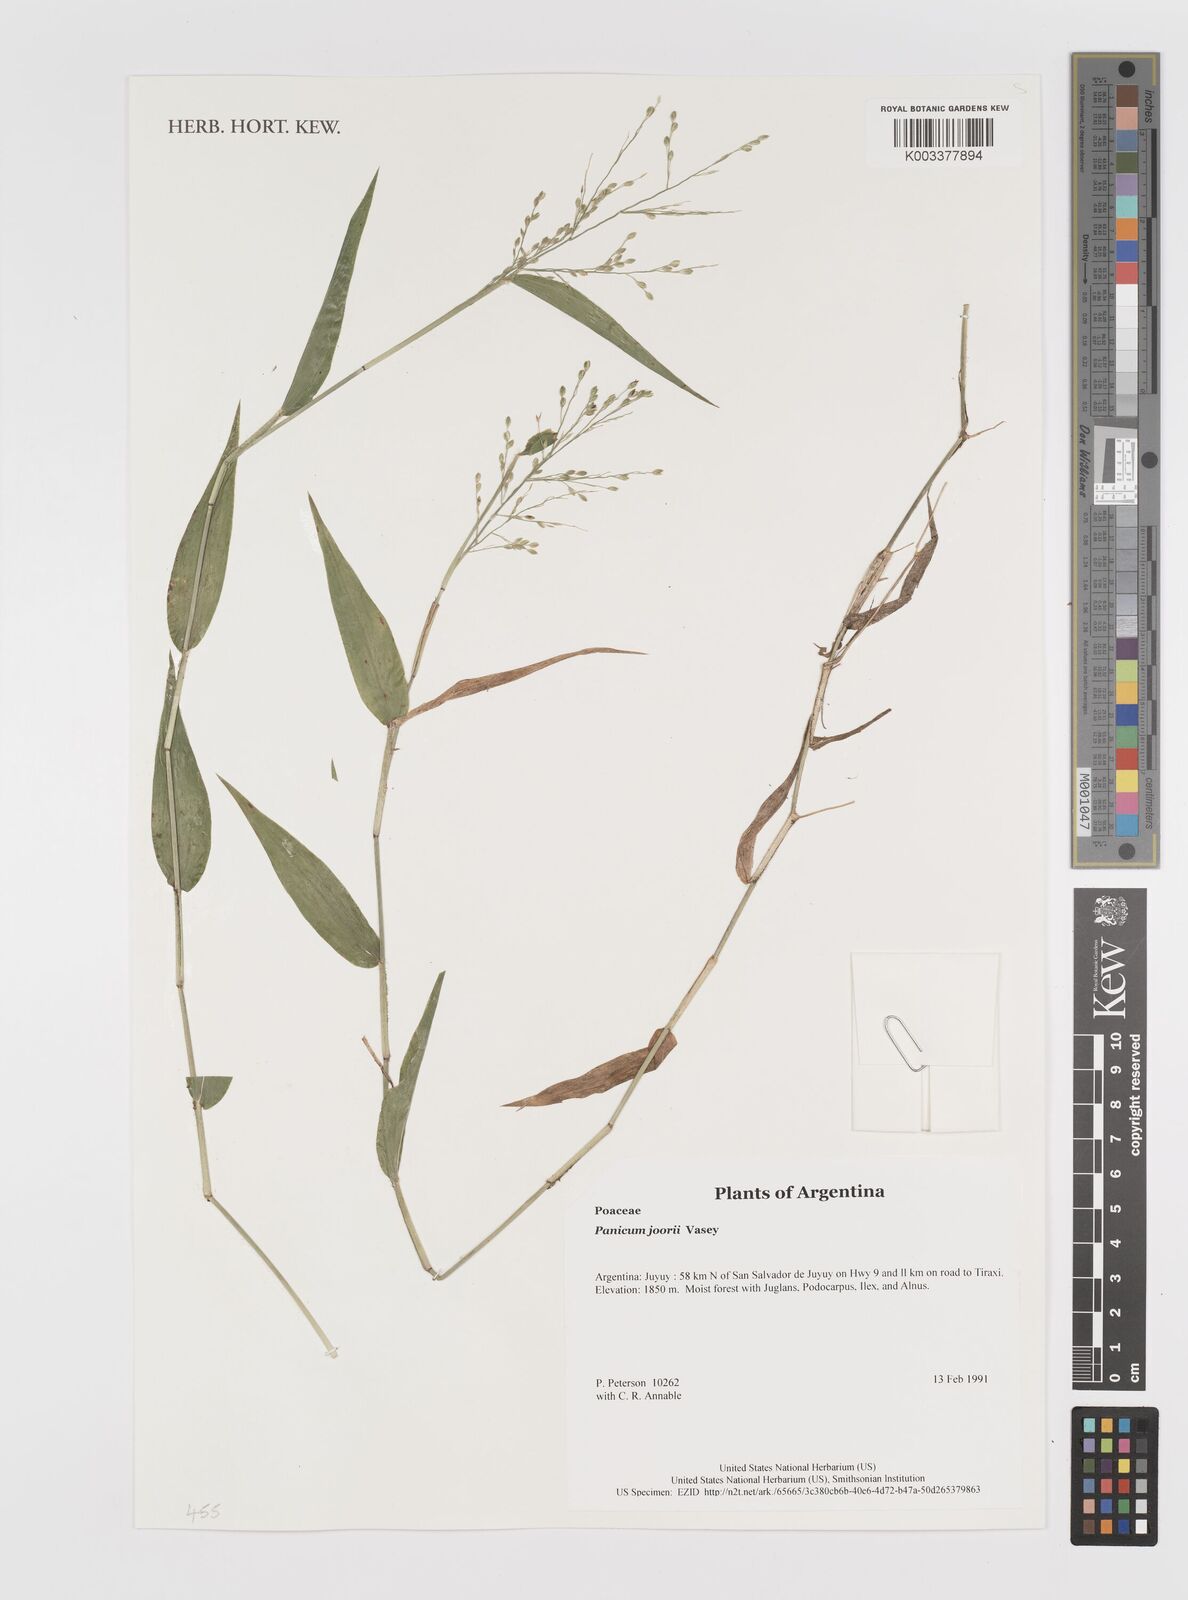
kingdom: Plantae
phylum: Tracheophyta
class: Liliopsida
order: Poales
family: Poaceae
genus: Dichanthelium
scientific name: Dichanthelium commutatum
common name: Variable witchgrass
